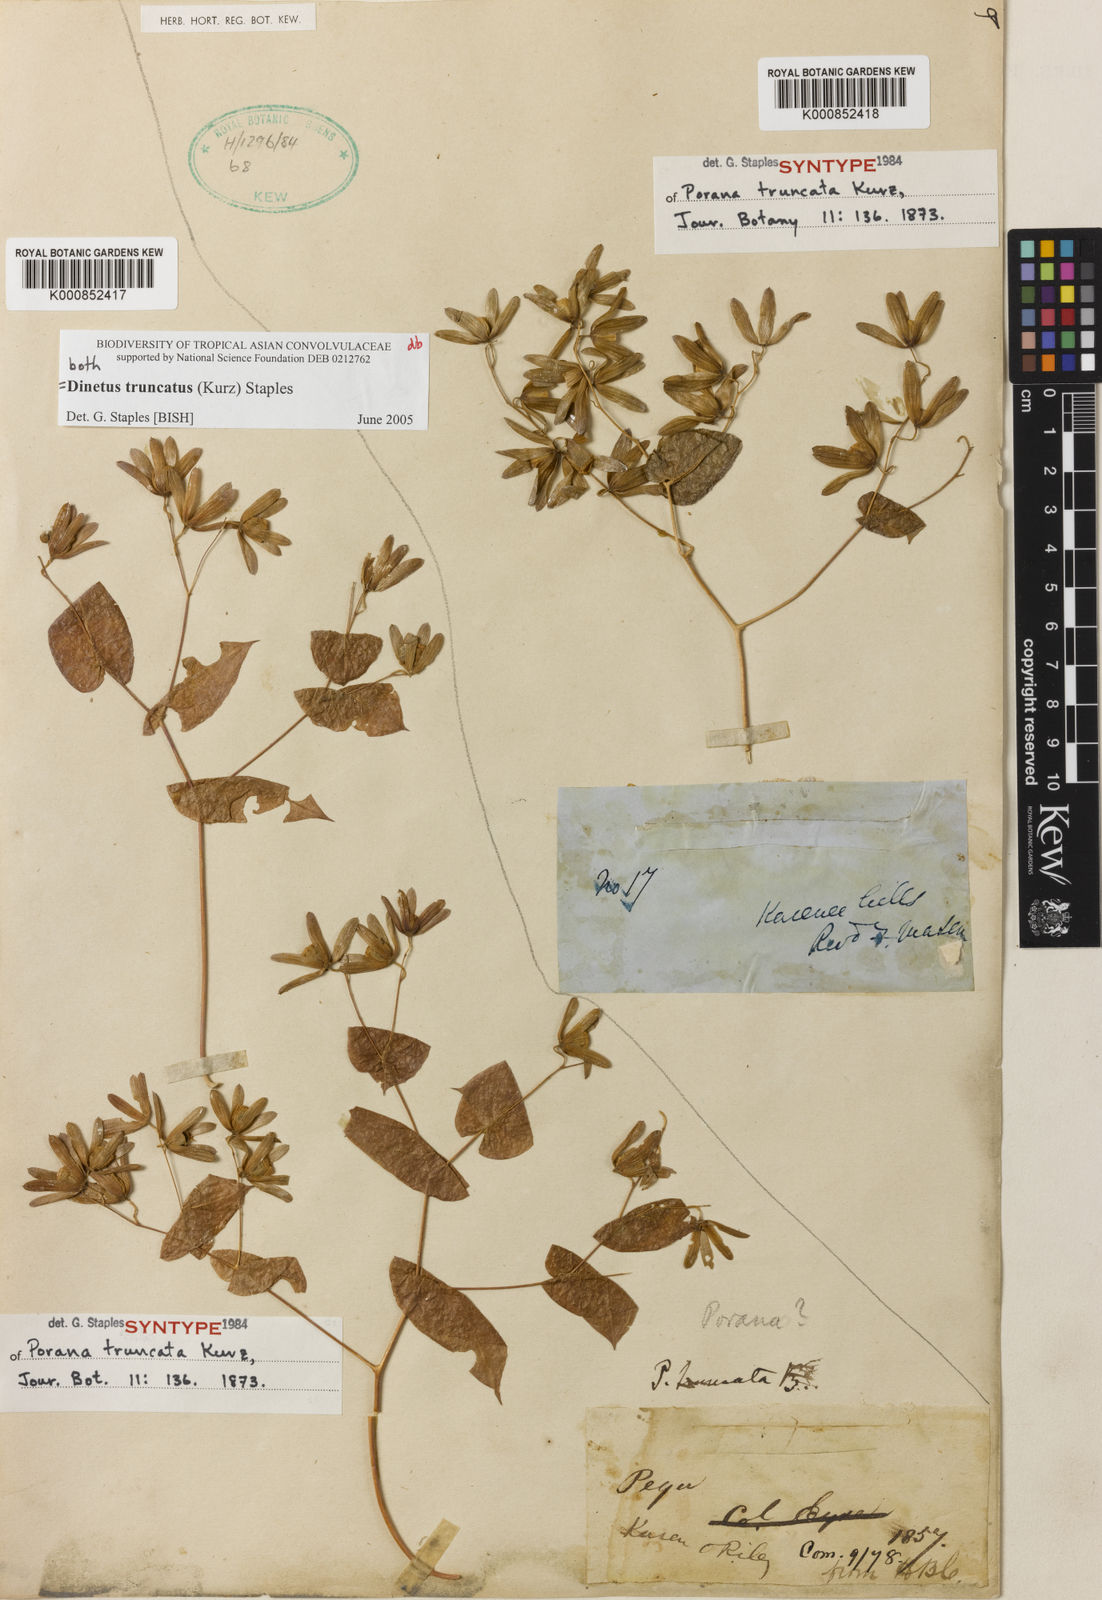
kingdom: Plantae
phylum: Tracheophyta
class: Magnoliopsida
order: Solanales
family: Convolvulaceae
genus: Dinetus
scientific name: Dinetus truncatus
